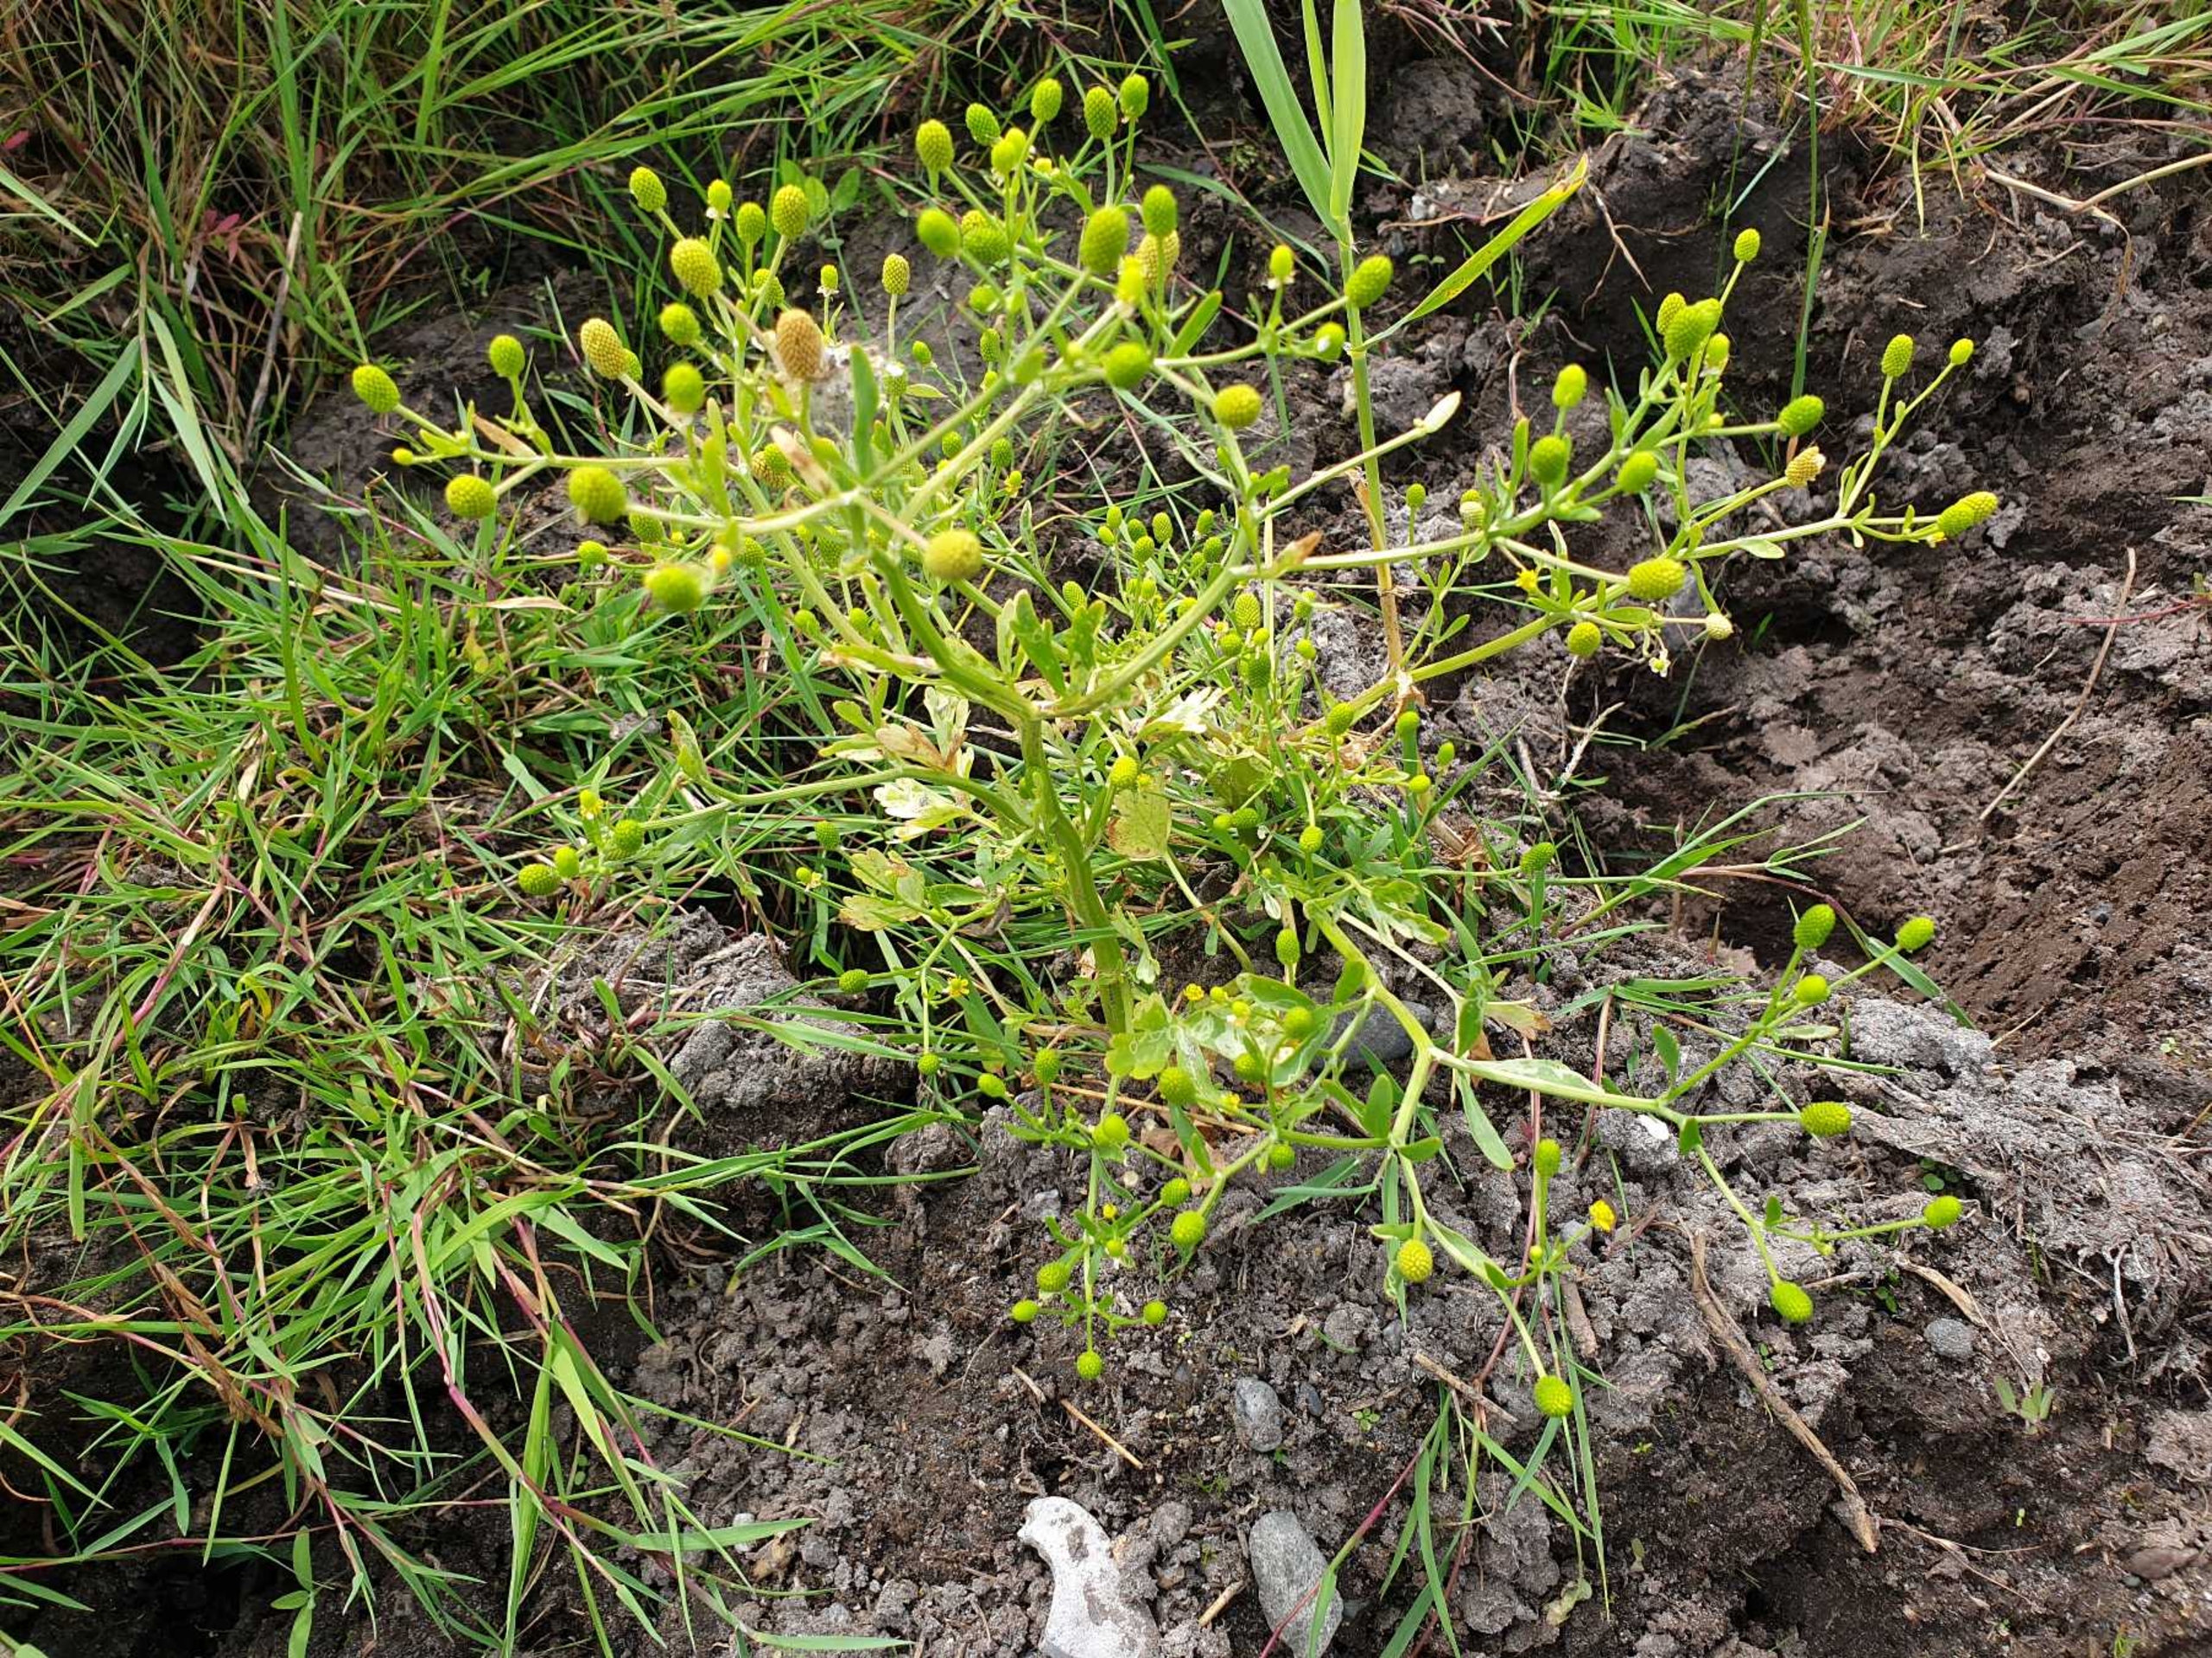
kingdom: Plantae
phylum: Tracheophyta
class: Magnoliopsida
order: Ranunculales
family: Ranunculaceae
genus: Ranunculus
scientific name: Ranunculus sceleratus
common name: Tigger-ranunkel
